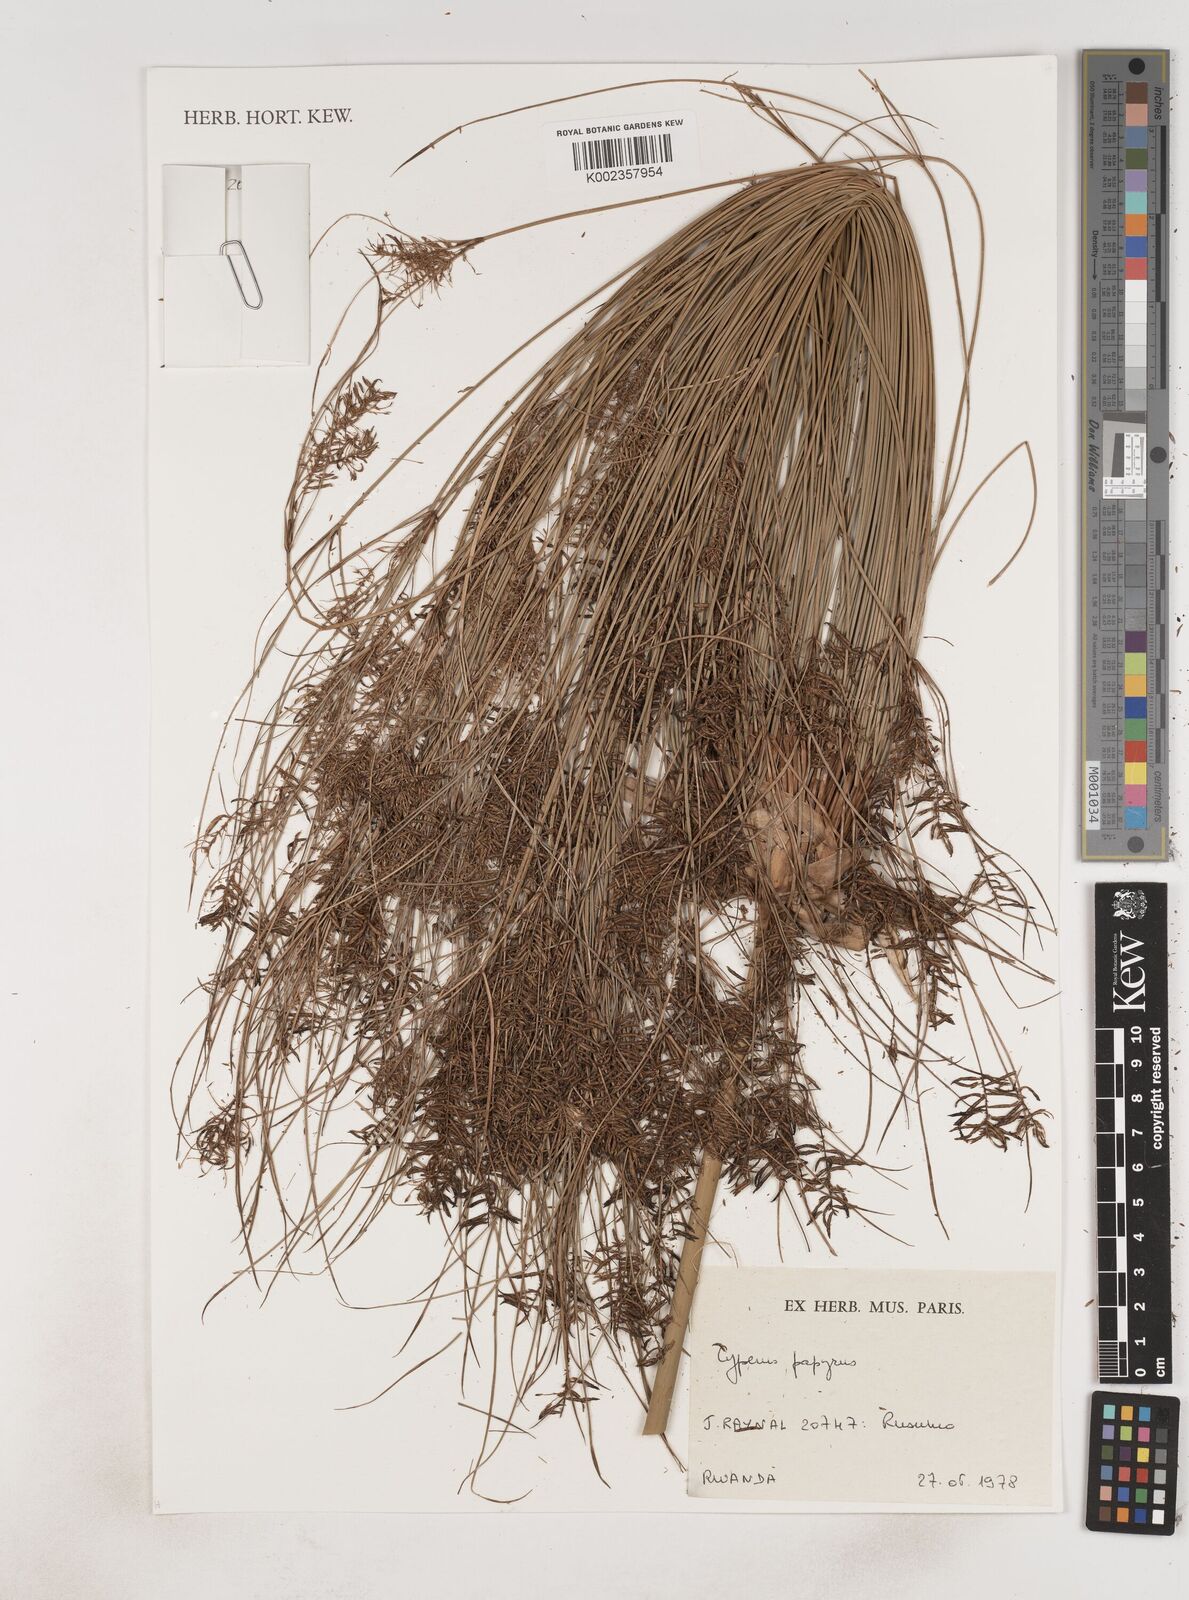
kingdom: Plantae
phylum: Tracheophyta
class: Liliopsida
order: Poales
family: Cyperaceae
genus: Cyperus
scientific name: Cyperus papyrus
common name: Papyrus
